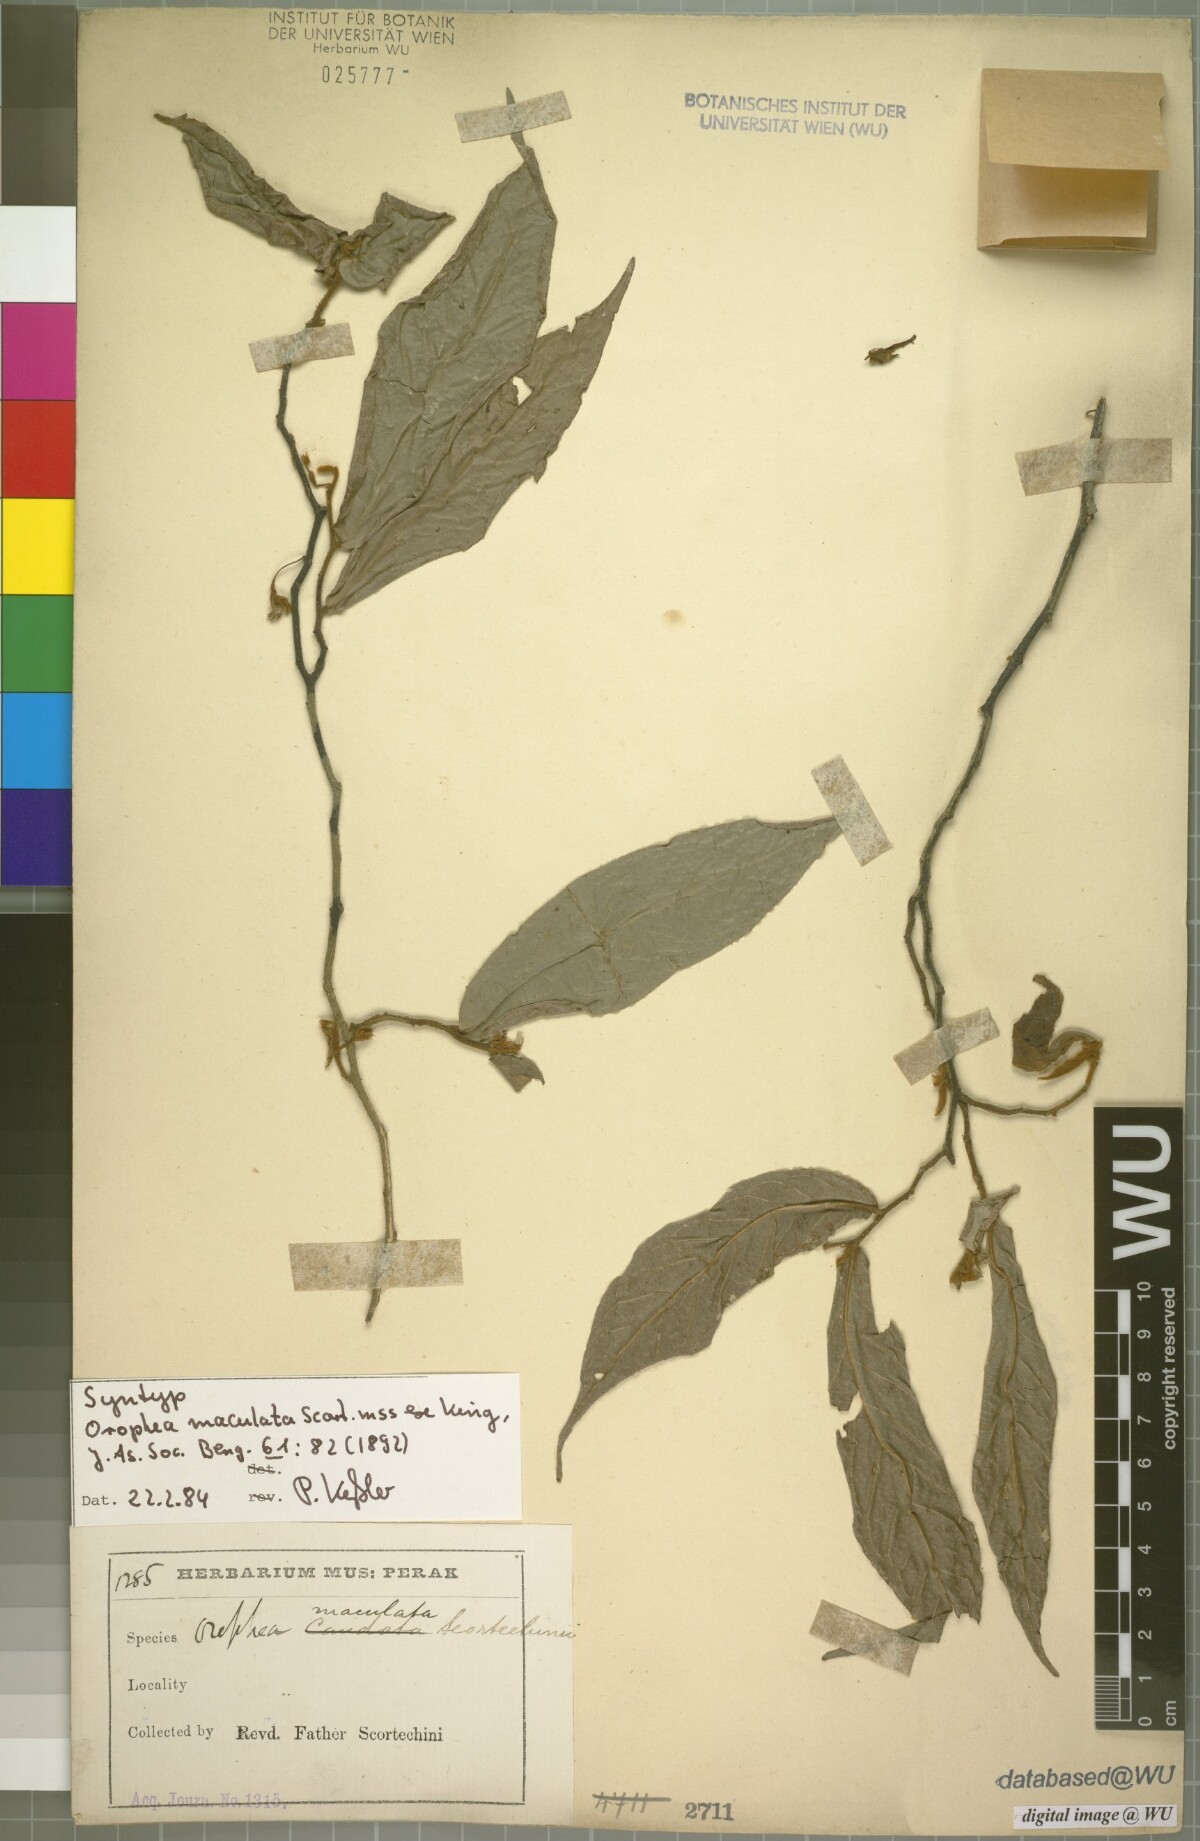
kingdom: Plantae
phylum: Tracheophyta
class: Magnoliopsida
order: Magnoliales
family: Annonaceae
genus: Orophea
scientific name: Orophea maculata
